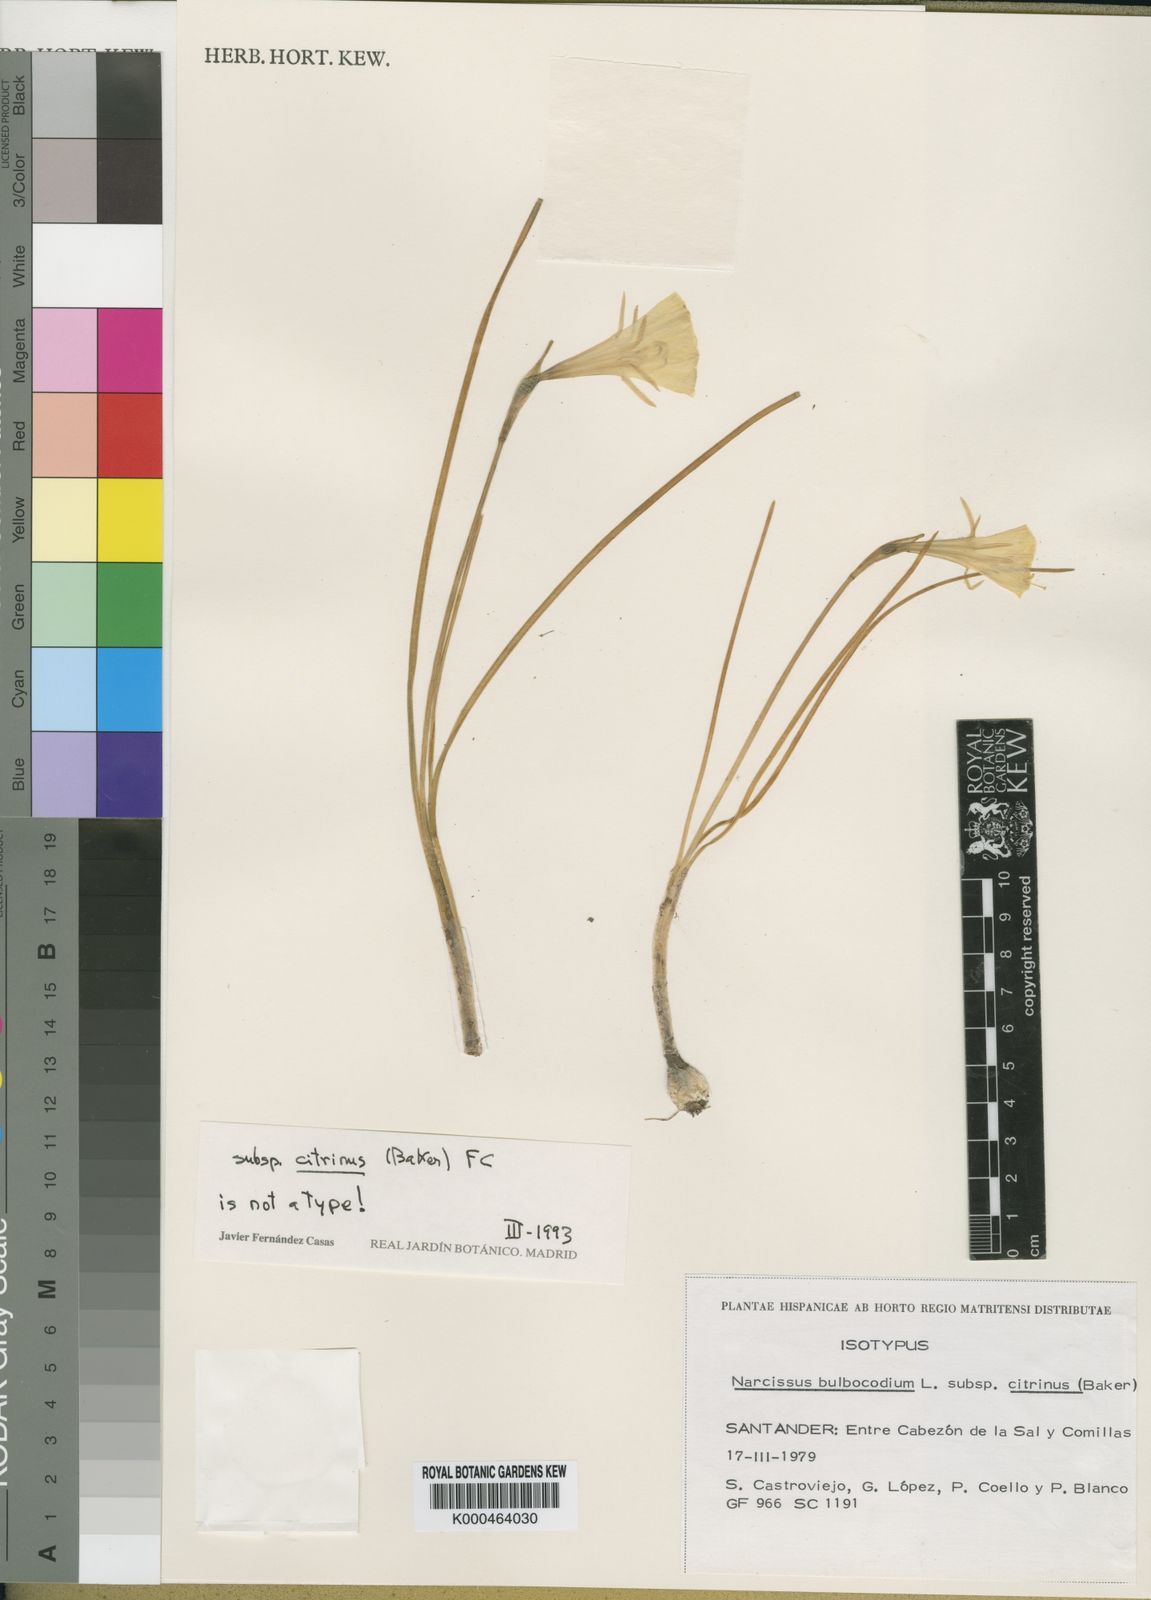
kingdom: Plantae
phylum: Tracheophyta
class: Liliopsida
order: Asparagales
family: Amaryllidaceae
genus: Narcissus
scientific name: Narcissus bulbocodium
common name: Hoop-petticoat daffodil
